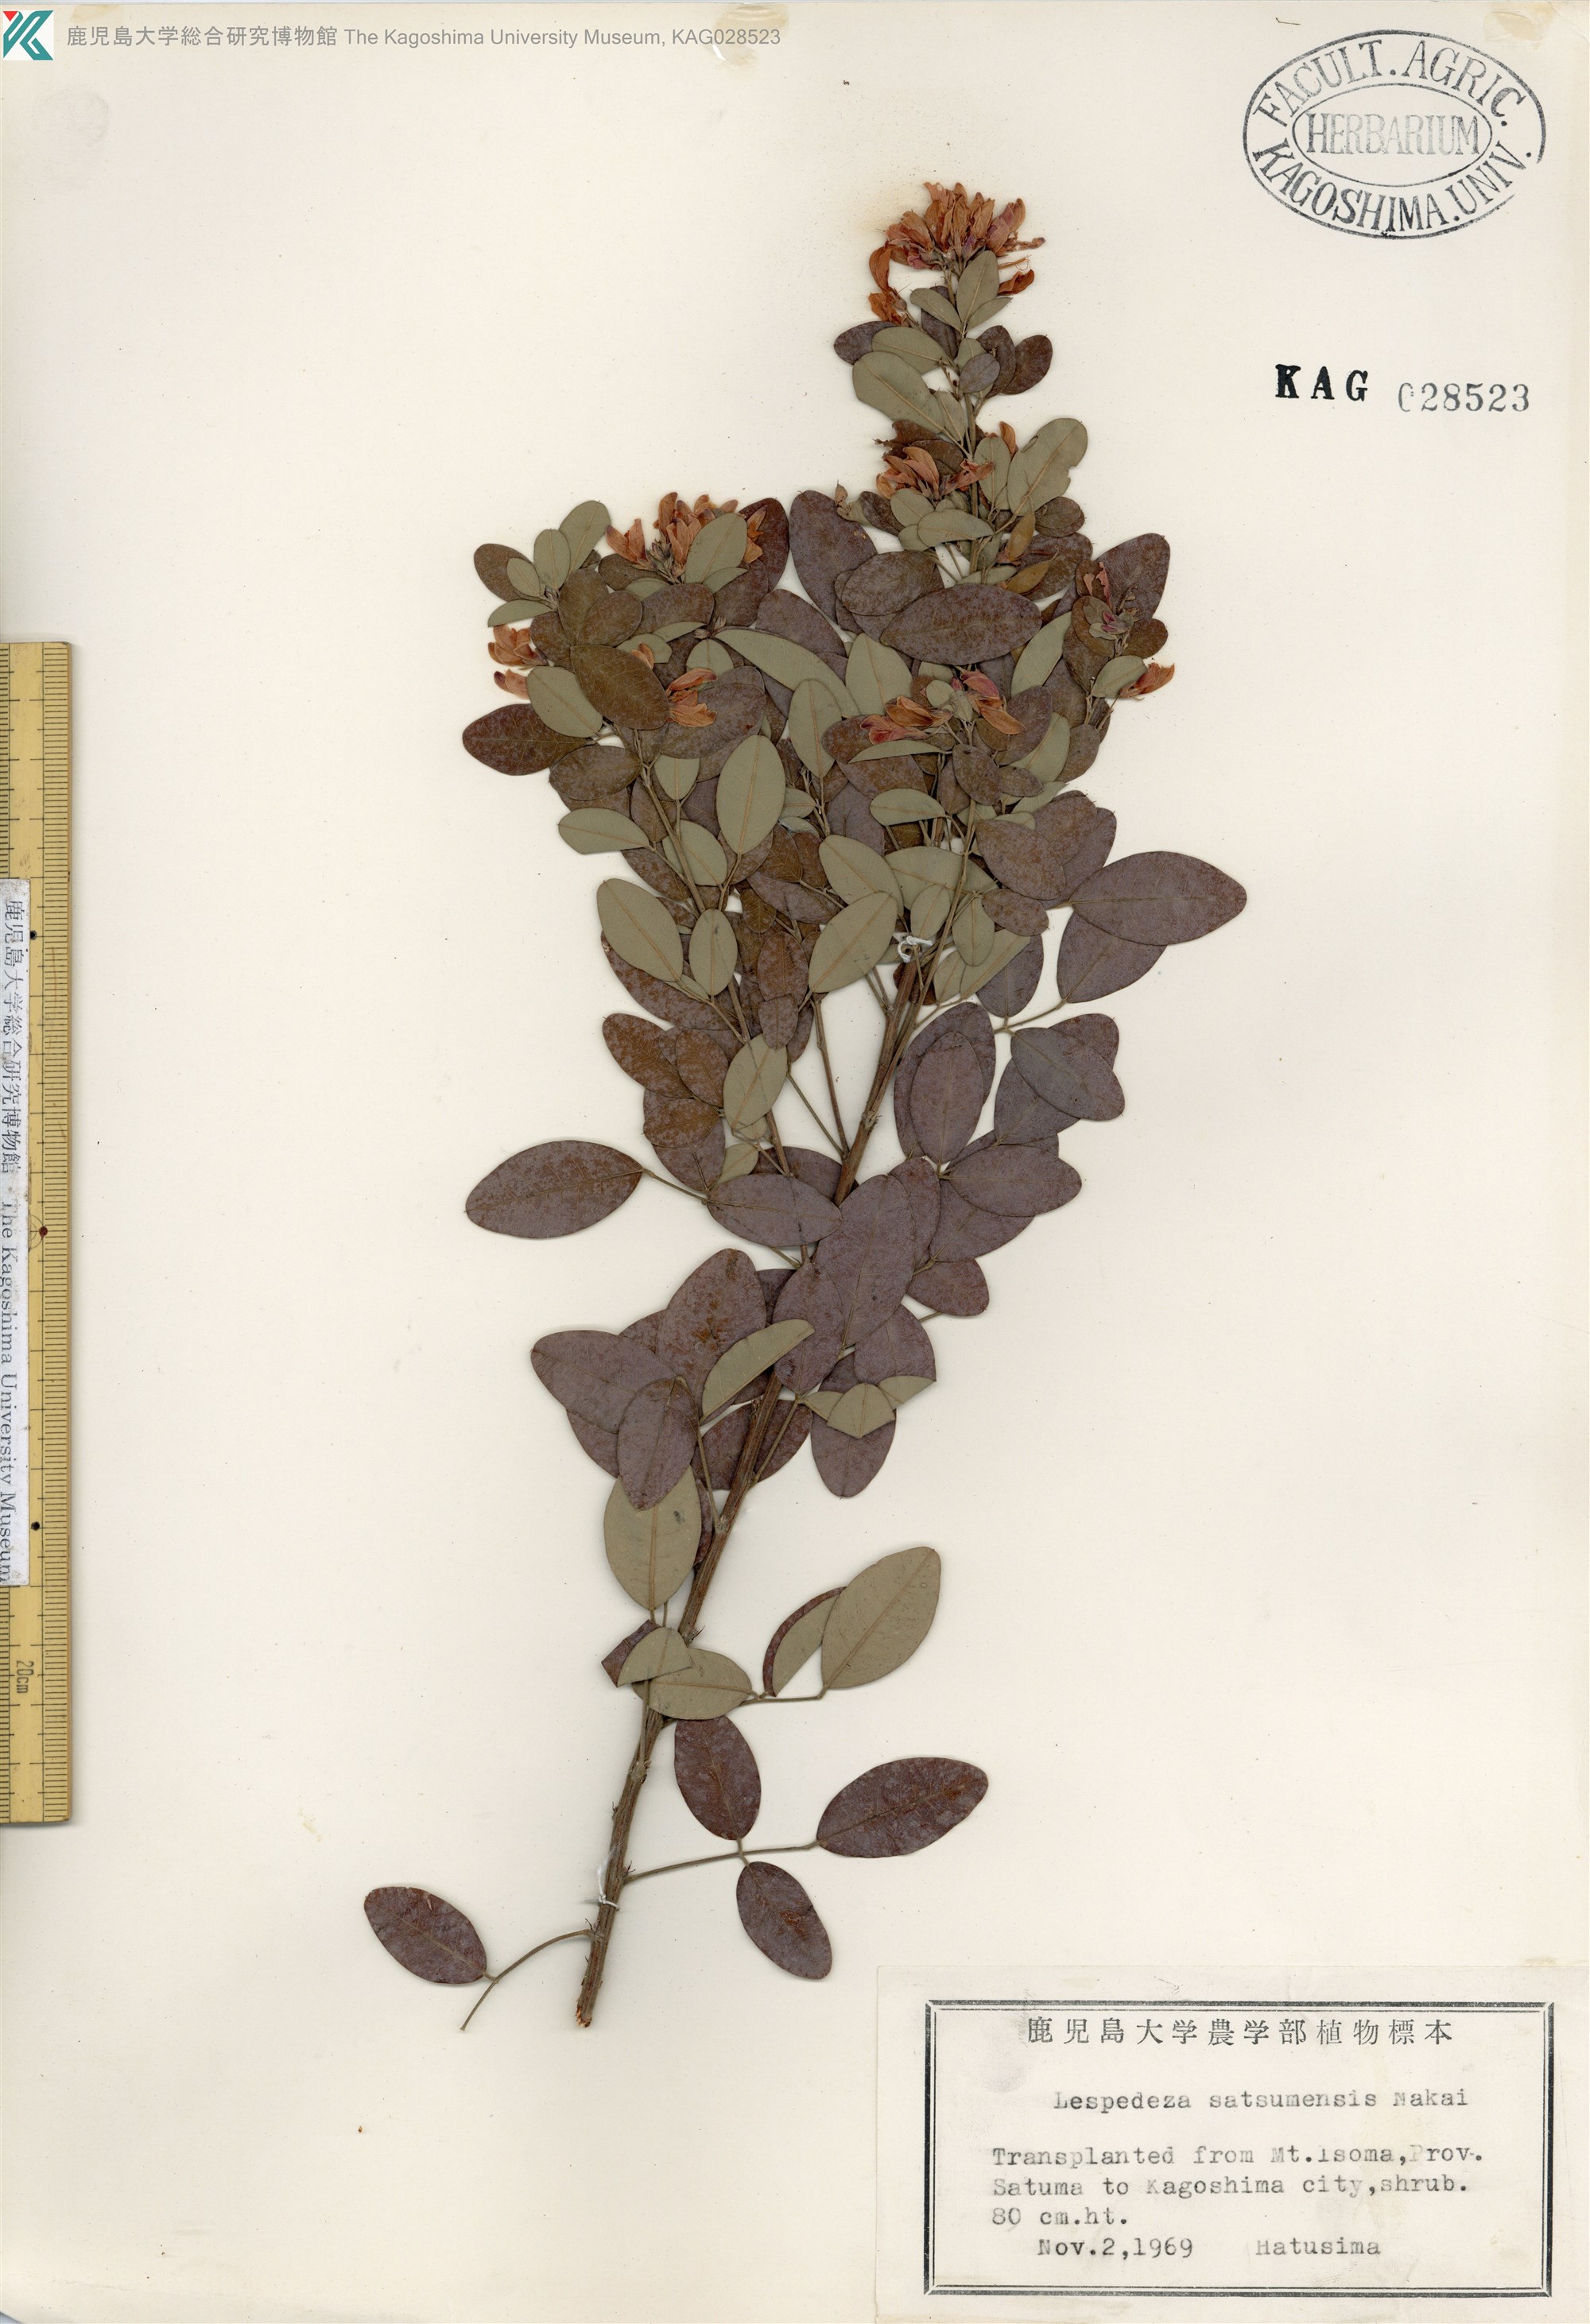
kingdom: Plantae
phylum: Tracheophyta
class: Magnoliopsida
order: Fabales
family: Fabaceae
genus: Lespedeza
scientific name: Lespedeza thunbergii
